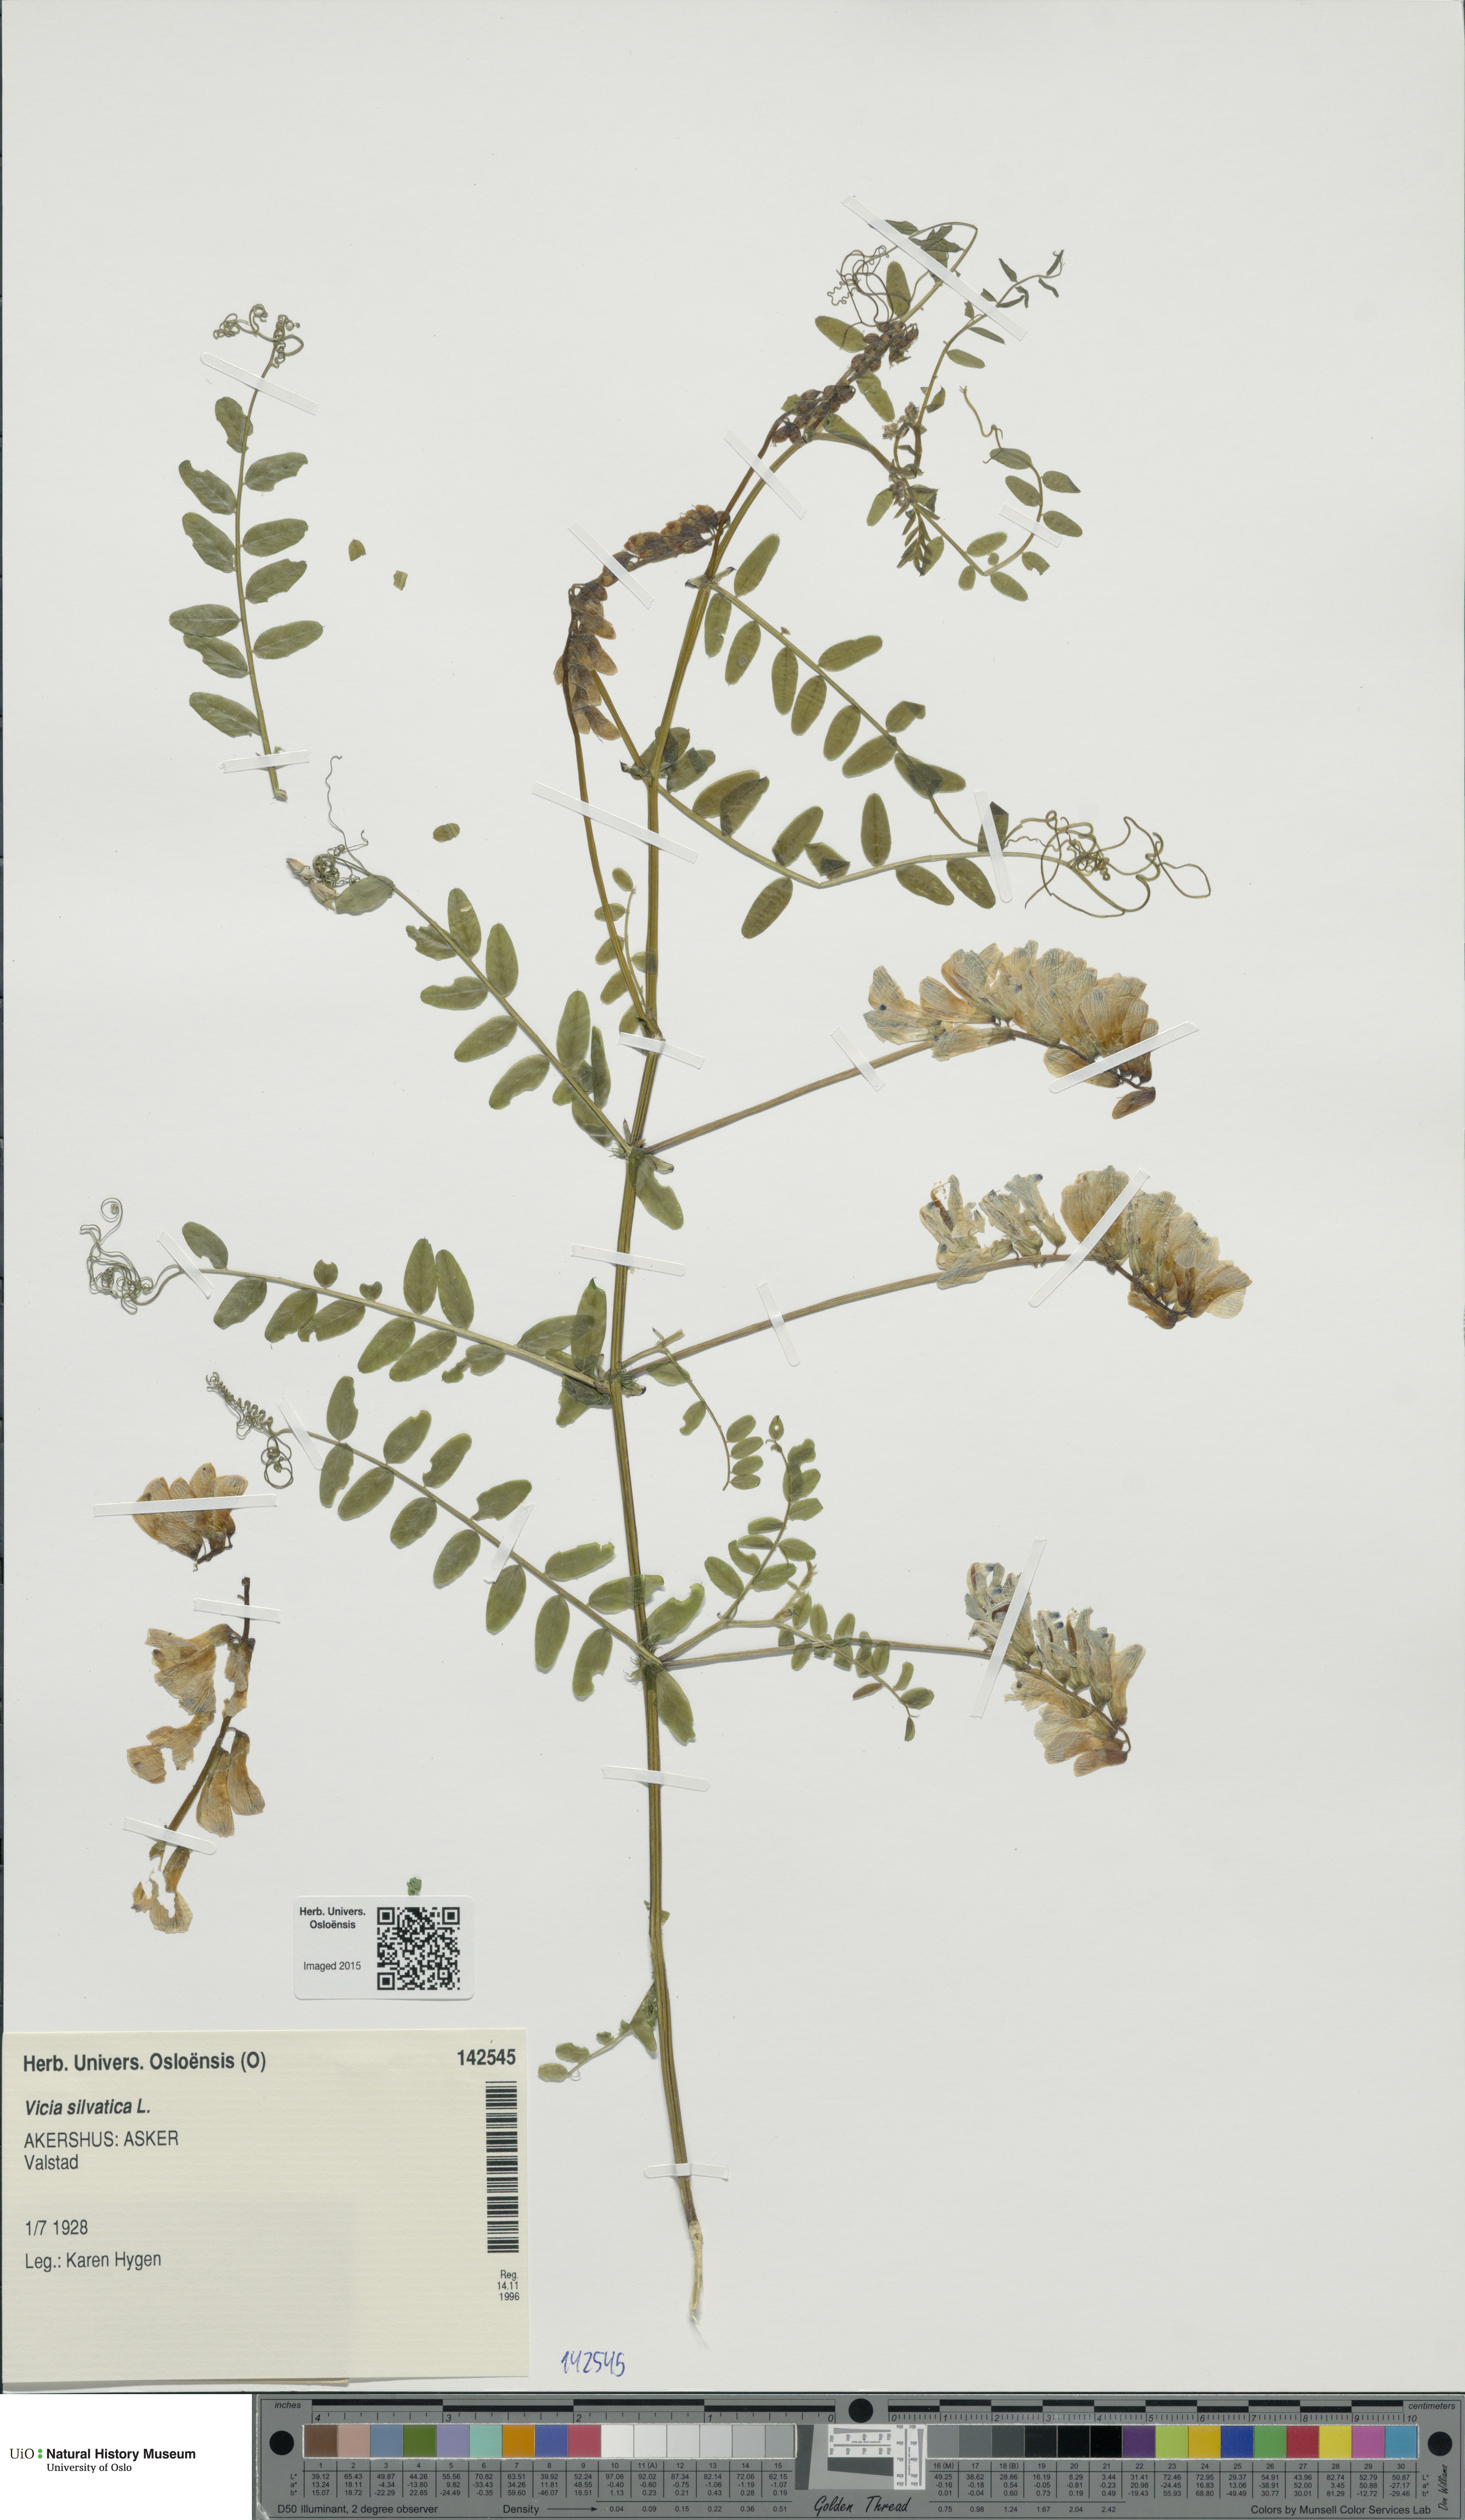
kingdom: Plantae
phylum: Tracheophyta
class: Magnoliopsida
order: Fabales
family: Fabaceae
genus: Vicia
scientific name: Vicia sylvatica
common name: Wood vetch
